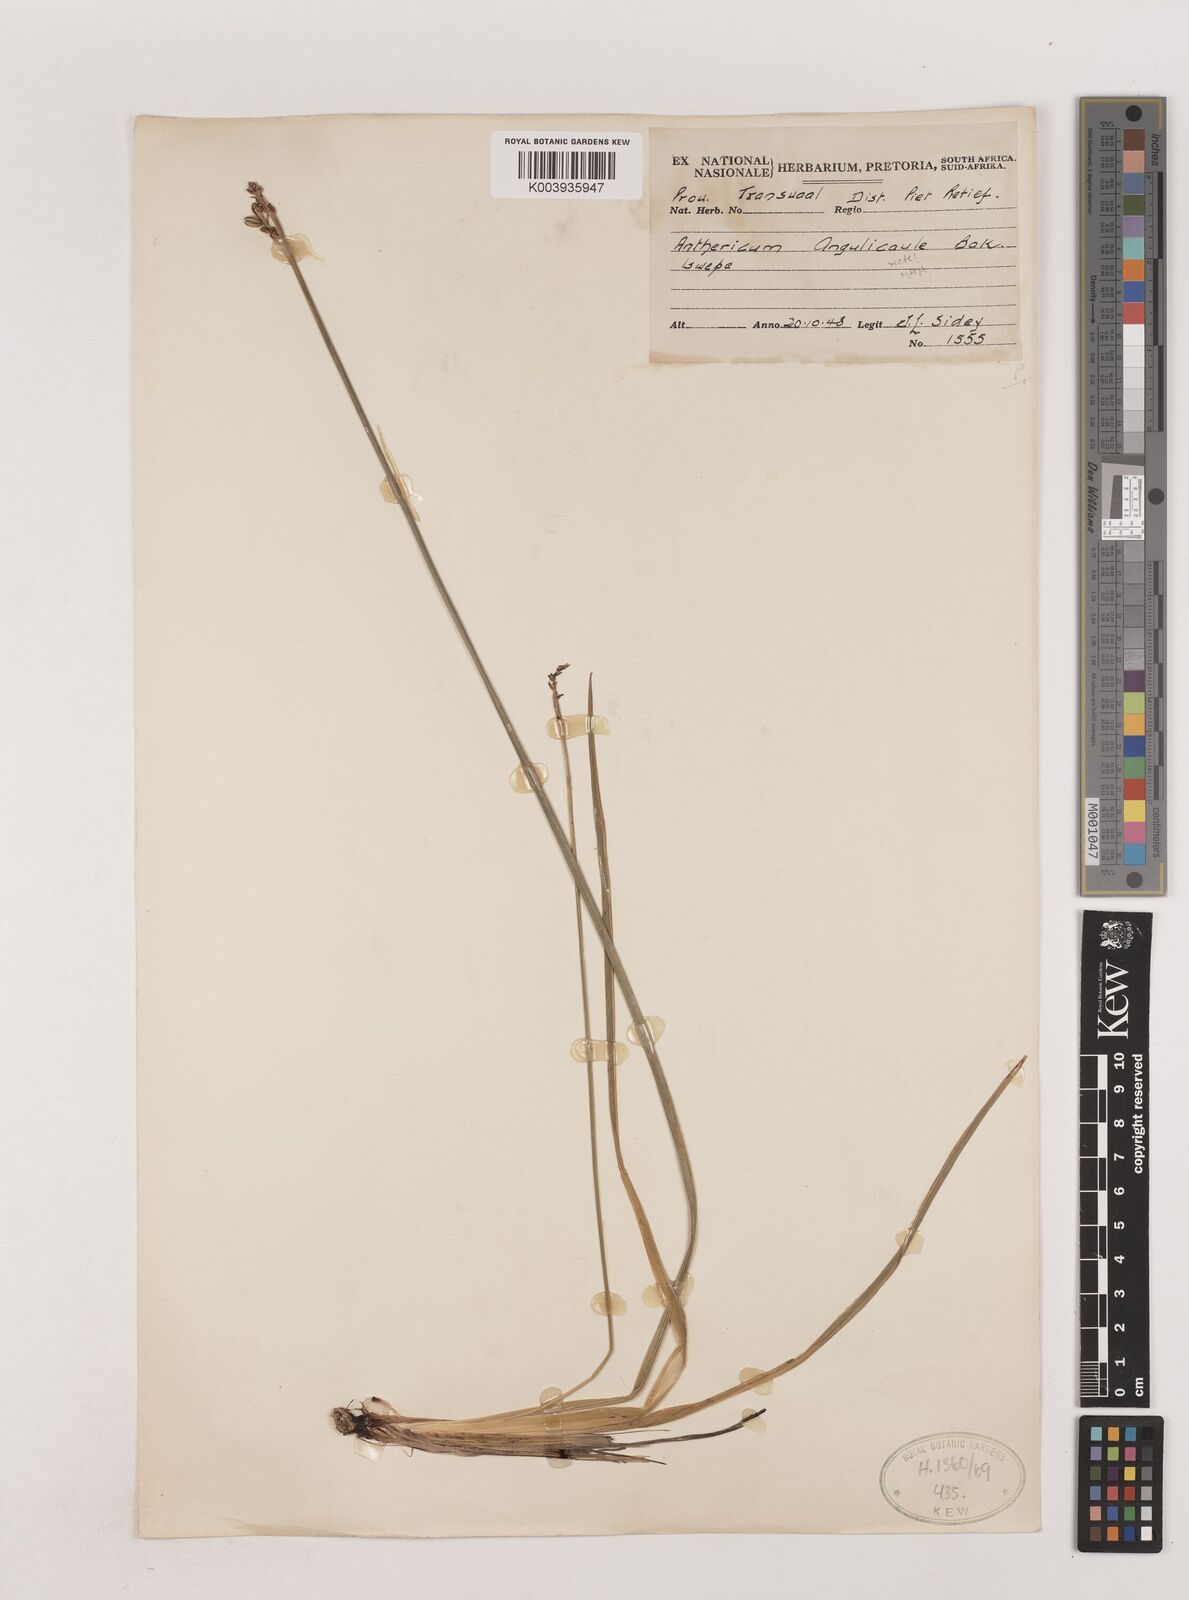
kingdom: Plantae
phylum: Tracheophyta
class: Liliopsida
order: Asparagales
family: Asparagaceae
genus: Chlorophytum
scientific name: Chlorophytum angulicaule
